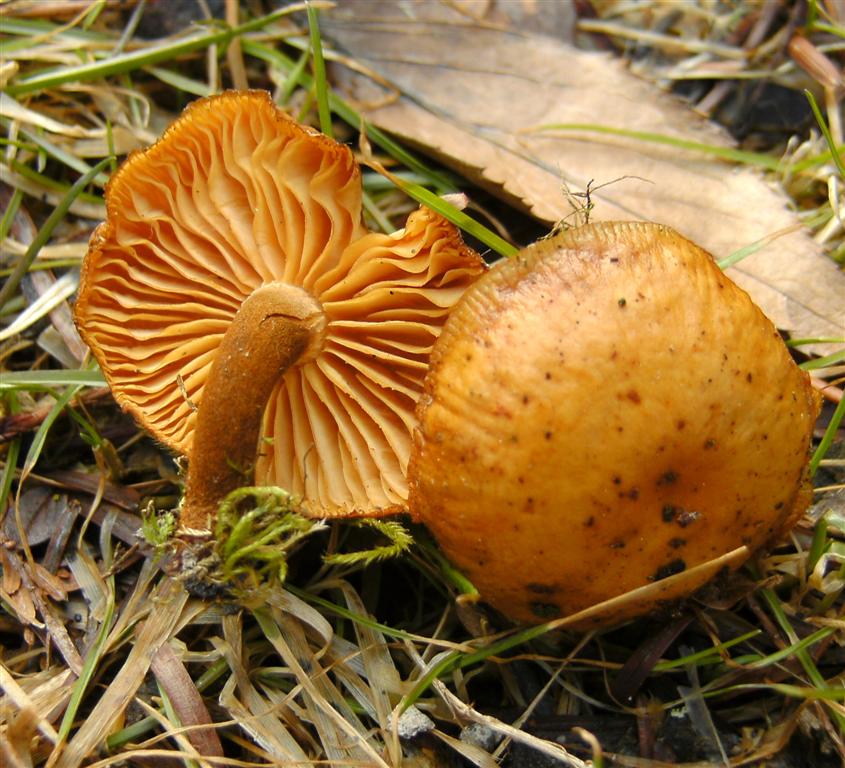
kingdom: Fungi
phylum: Basidiomycota
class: Agaricomycetes
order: Agaricales
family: Physalacriaceae
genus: Flammulina
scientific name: Flammulina elastica
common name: pile-fløjlsfod
